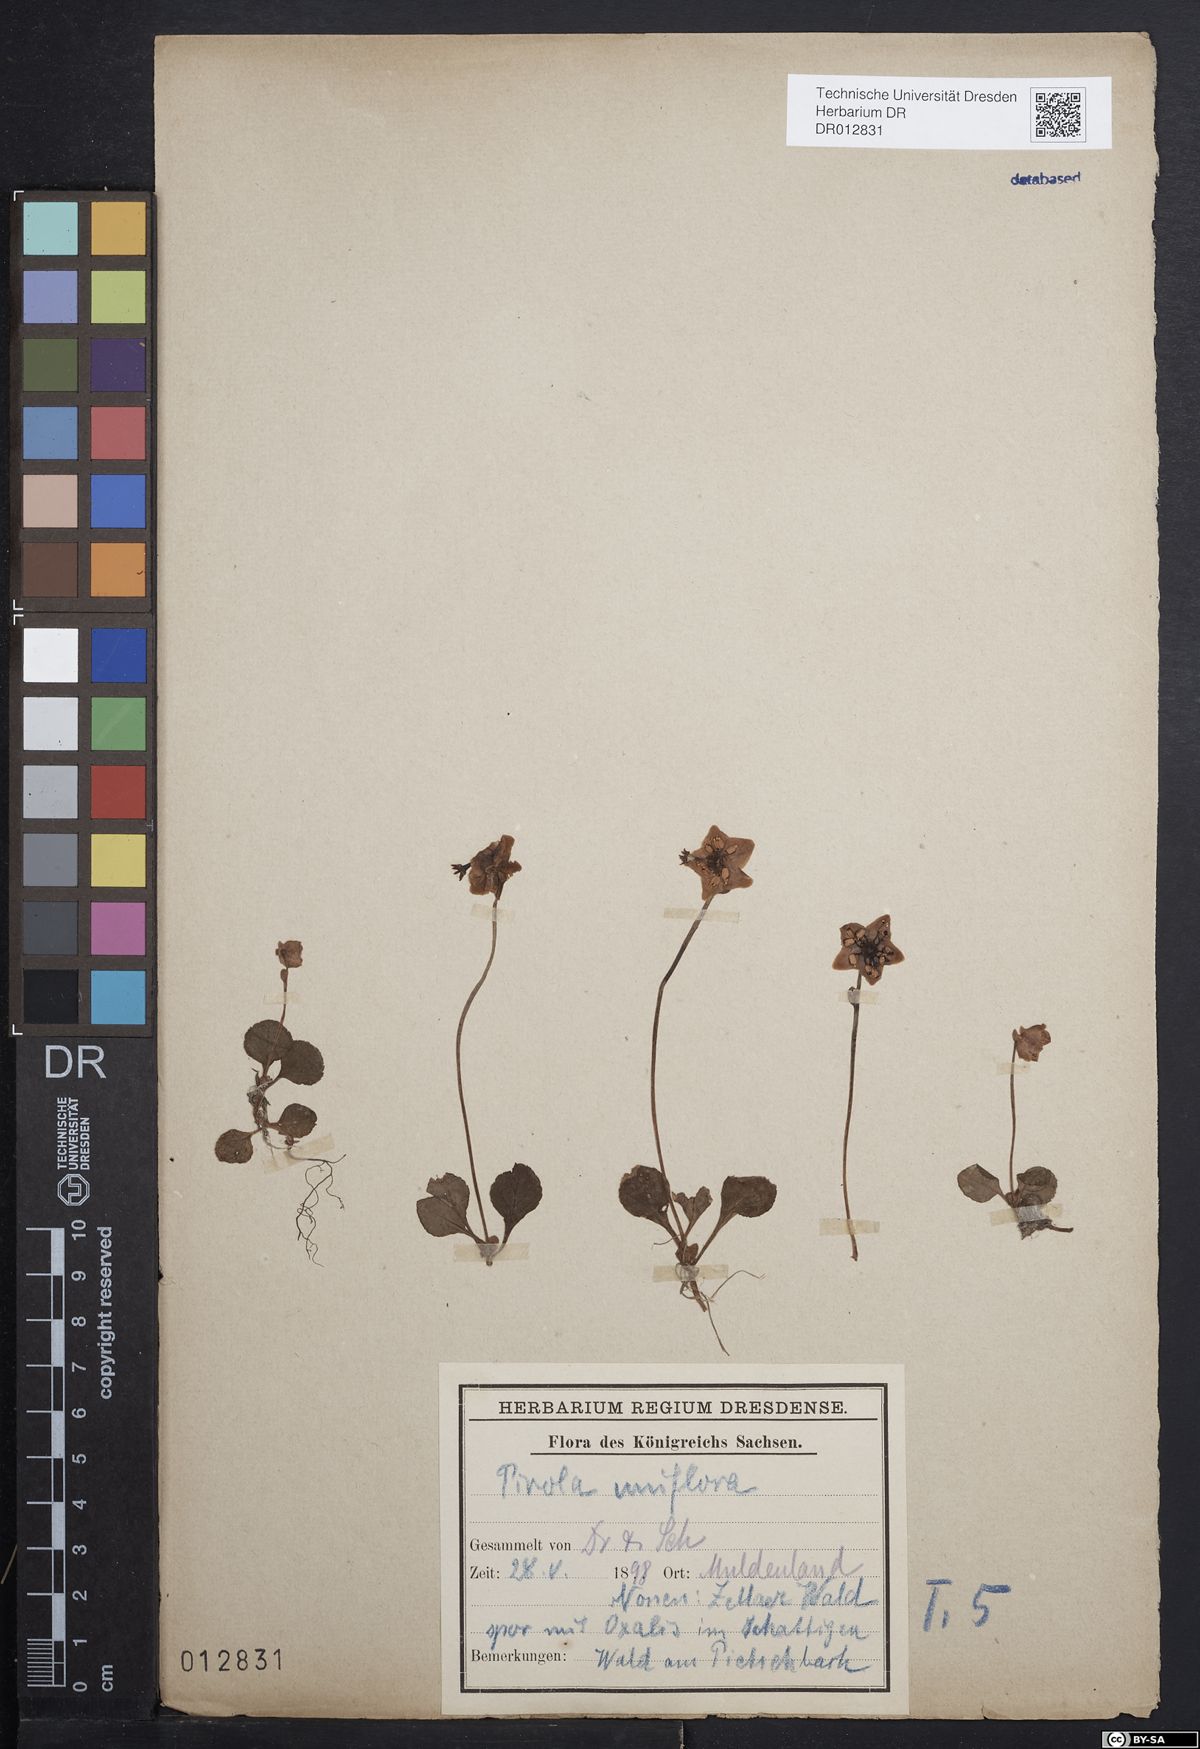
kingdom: Plantae
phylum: Tracheophyta
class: Magnoliopsida
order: Ericales
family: Ericaceae
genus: Moneses
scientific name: Moneses uniflora
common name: One-flowered wintergreen
